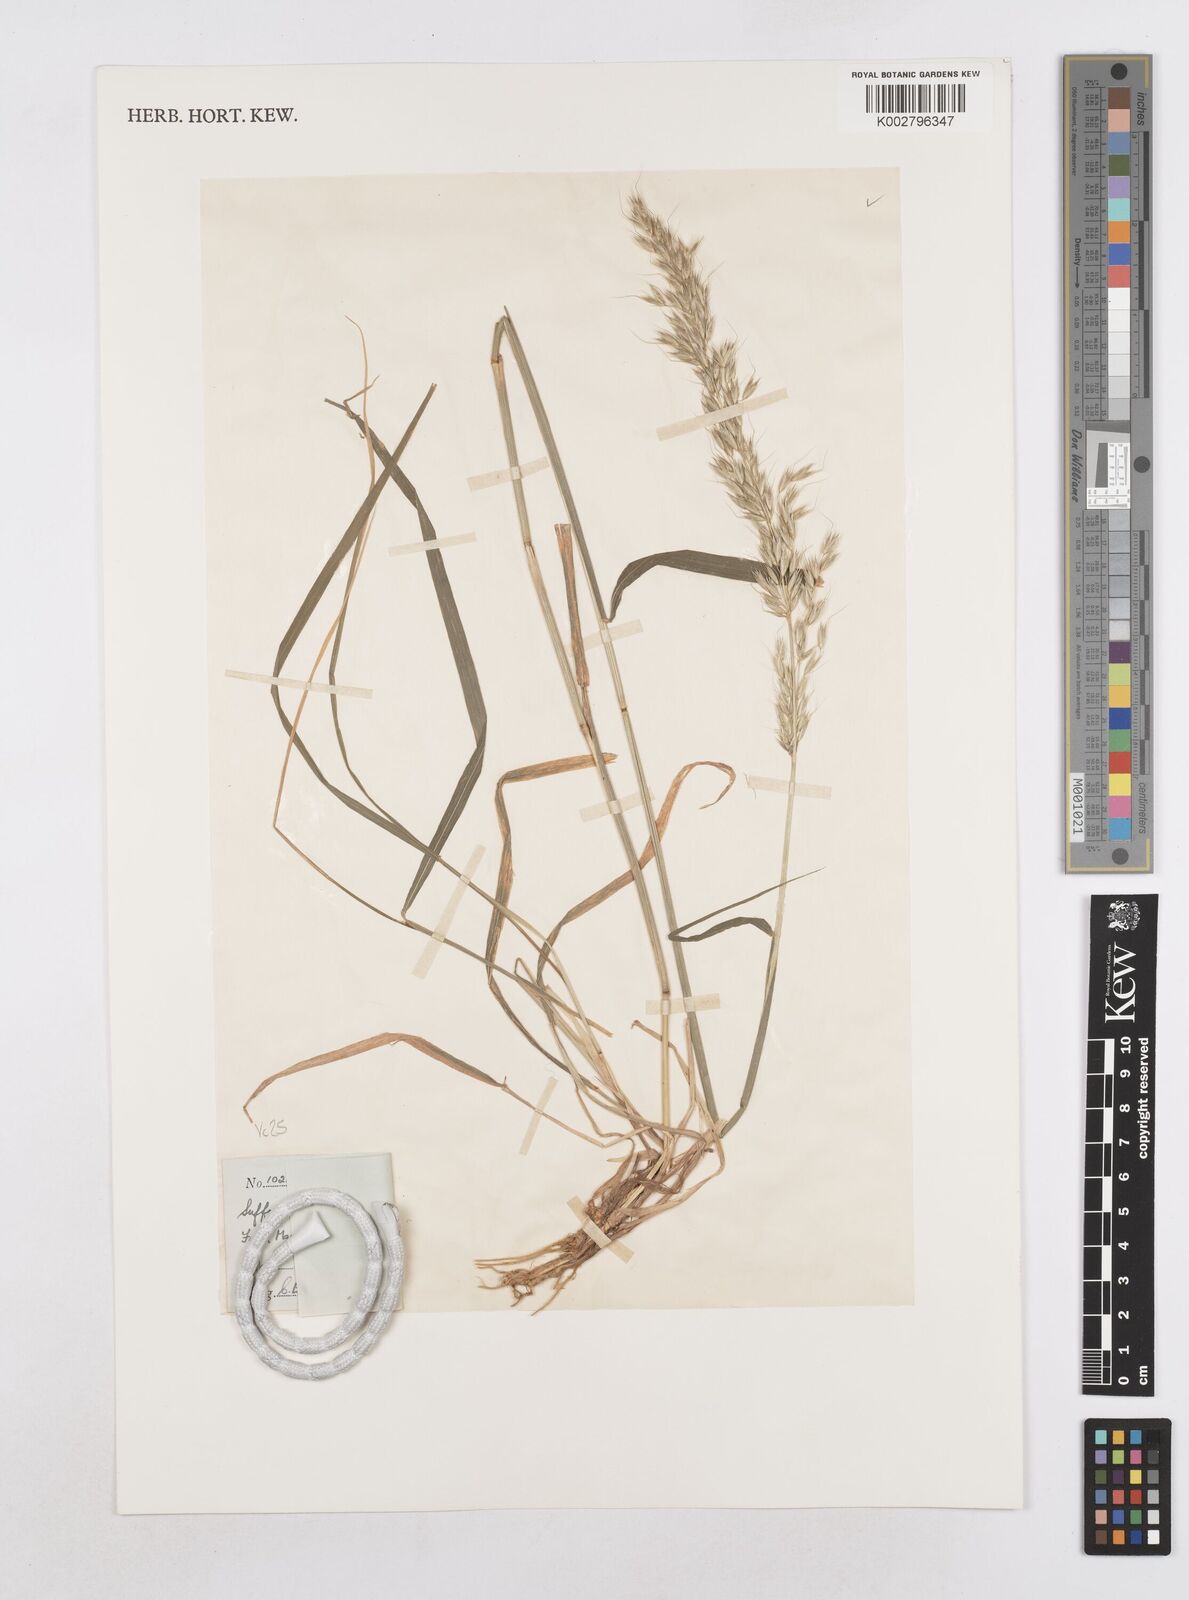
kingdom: Plantae
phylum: Tracheophyta
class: Liliopsida
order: Poales
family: Poaceae
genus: Arrhenatherum
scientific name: Arrhenatherum elatius
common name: Tall oatgrass
